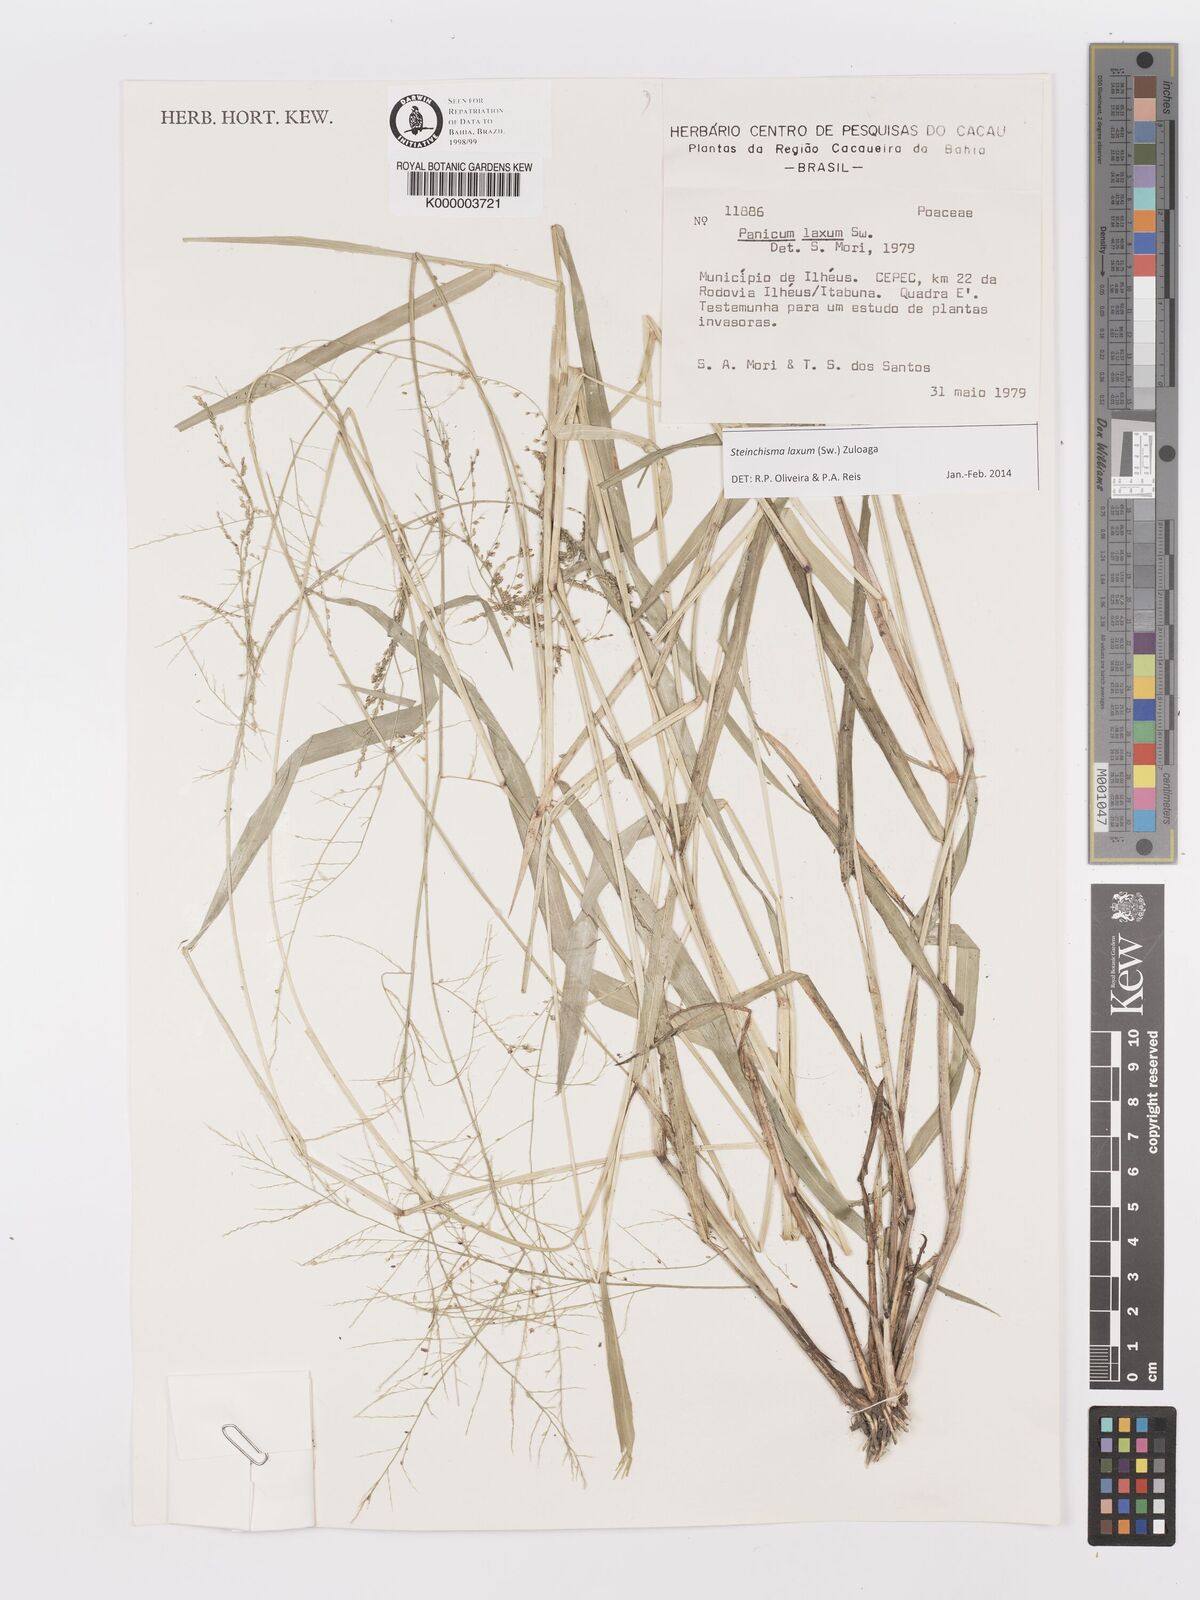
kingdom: Plantae
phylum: Tracheophyta
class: Liliopsida
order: Poales
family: Poaceae
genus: Panicum
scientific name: Panicum
